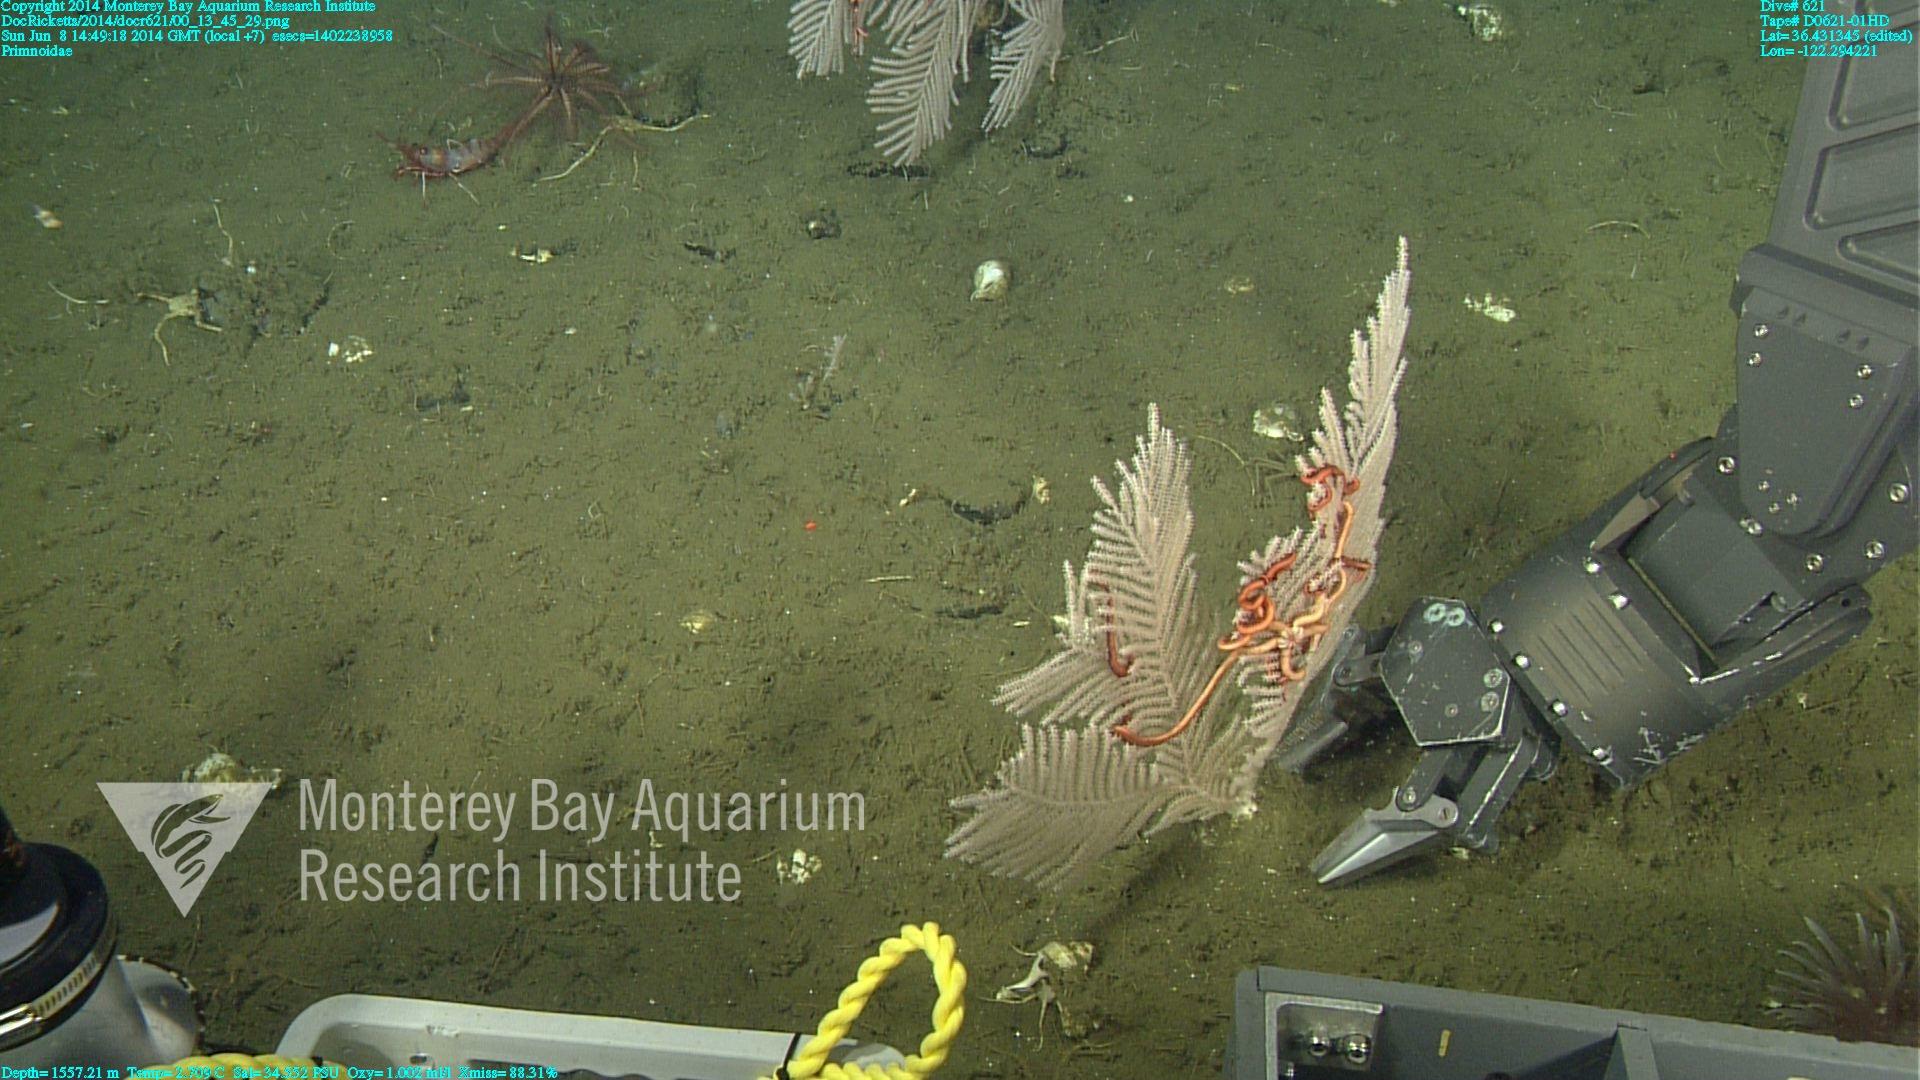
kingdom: Animalia
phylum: Cnidaria
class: Anthozoa
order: Scleralcyonacea
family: Primnoidae
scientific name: Primnoidae
